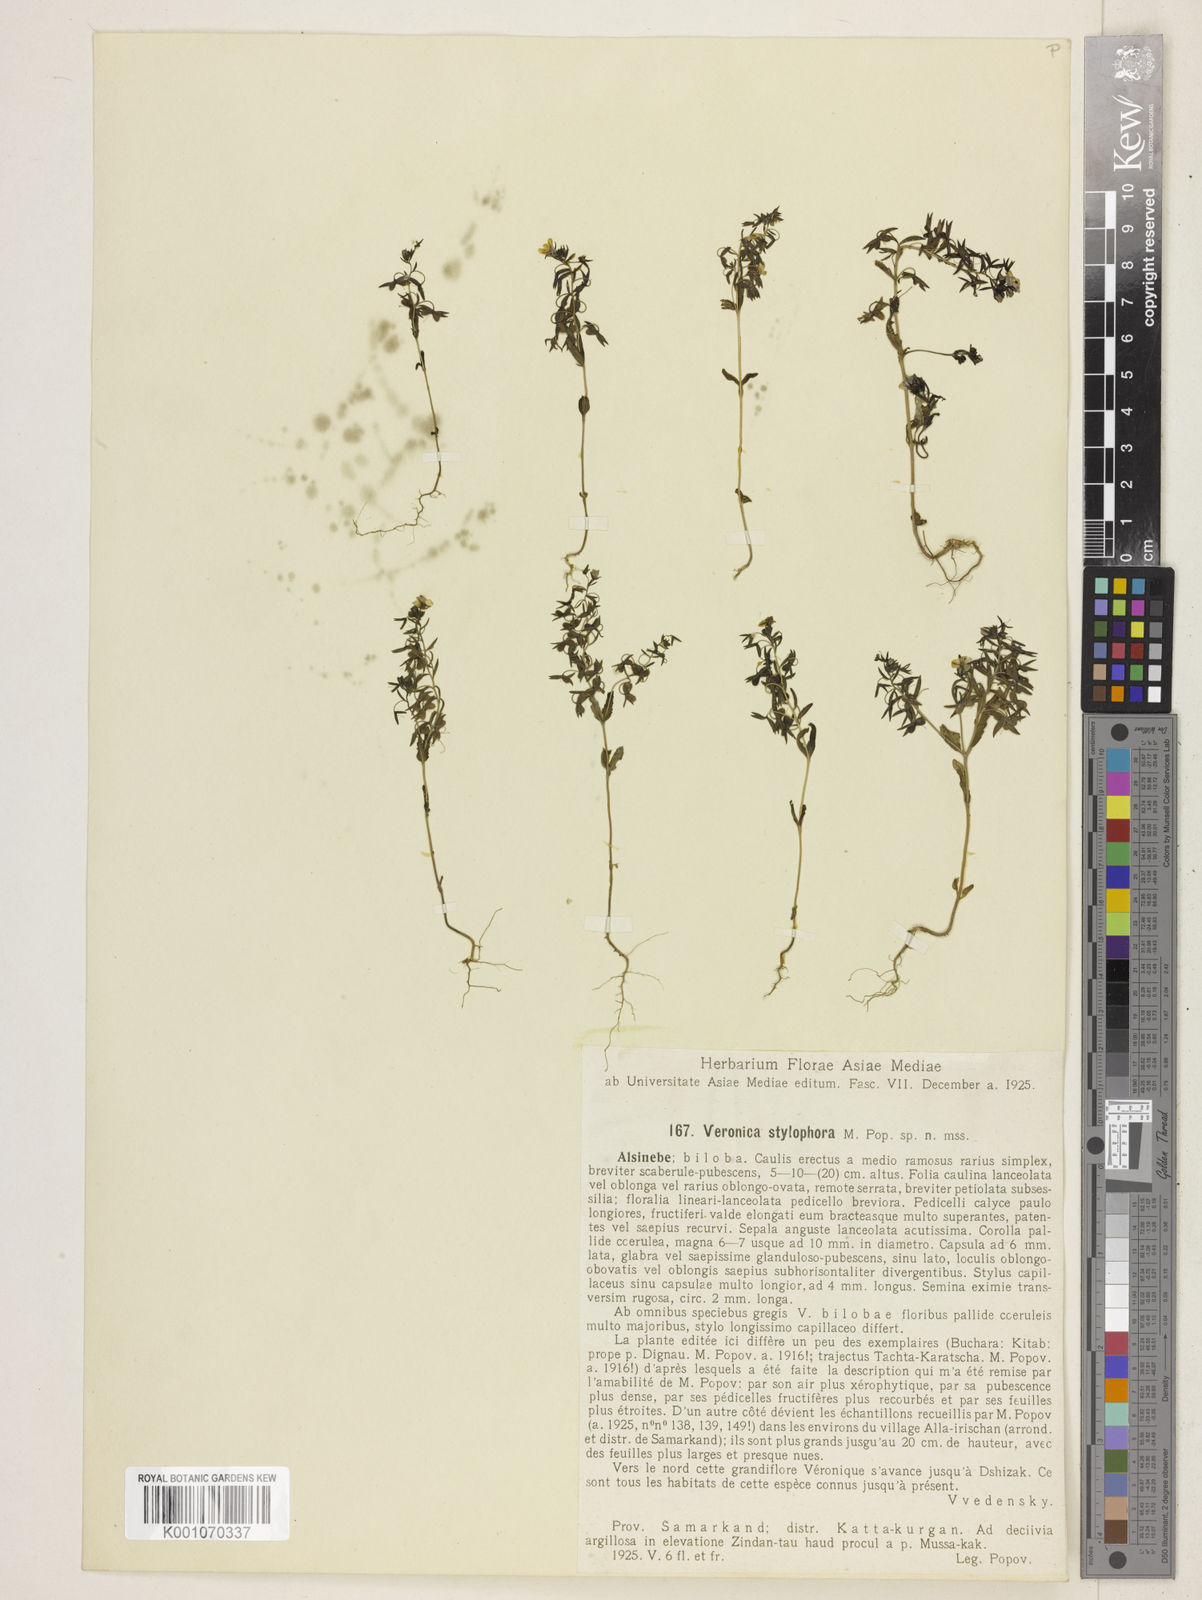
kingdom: Plantae
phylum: Tracheophyta
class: Magnoliopsida
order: Lamiales
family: Plantaginaceae
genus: Veronica
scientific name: Veronica
